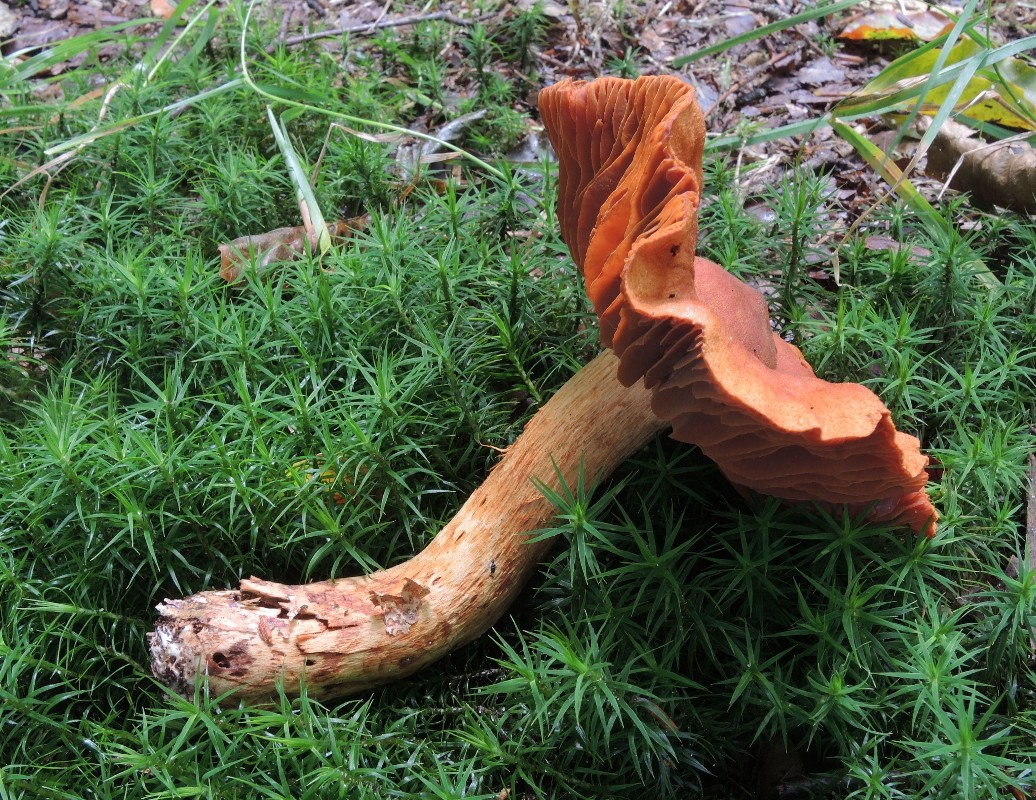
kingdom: Fungi
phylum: Basidiomycota
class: Agaricomycetes
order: Agaricales
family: Cortinariaceae
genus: Cortinarius
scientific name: Cortinarius rubellus
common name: puklet gift-slørhat
